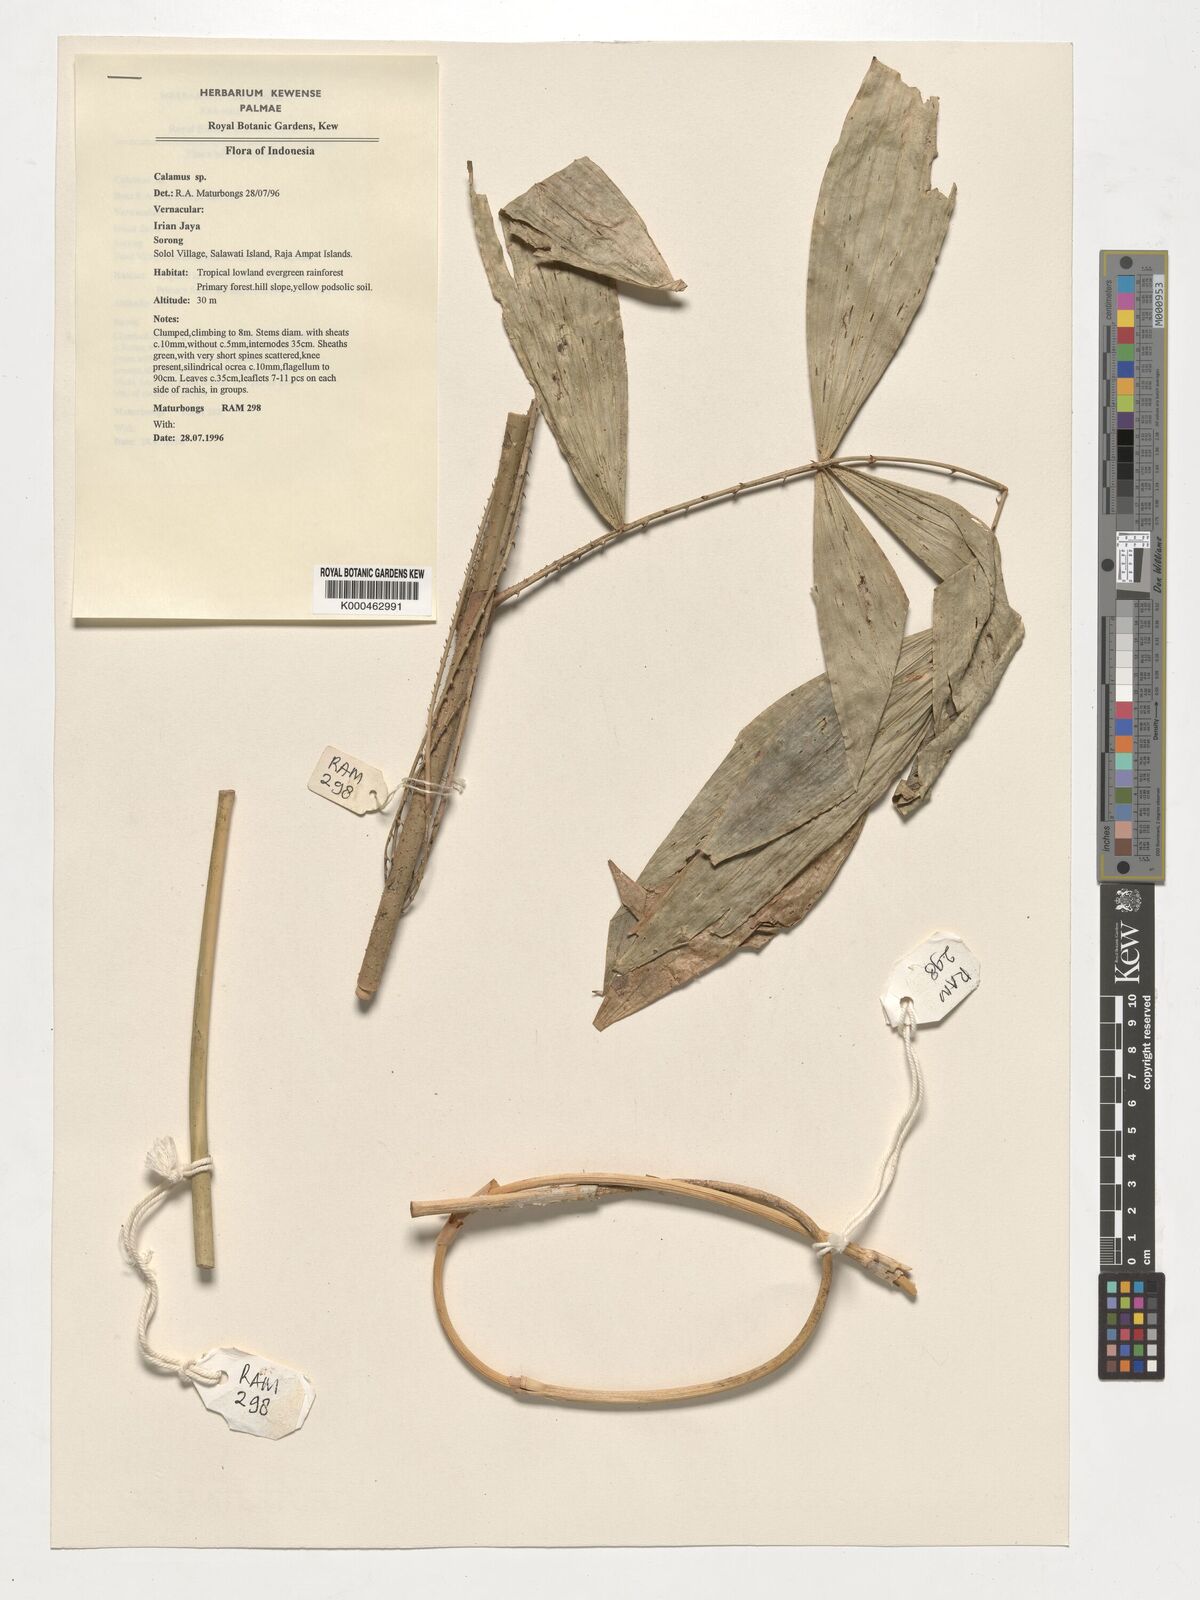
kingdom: Plantae
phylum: Tracheophyta
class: Liliopsida
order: Arecales
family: Arecaceae
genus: Calamus
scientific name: Calamus
